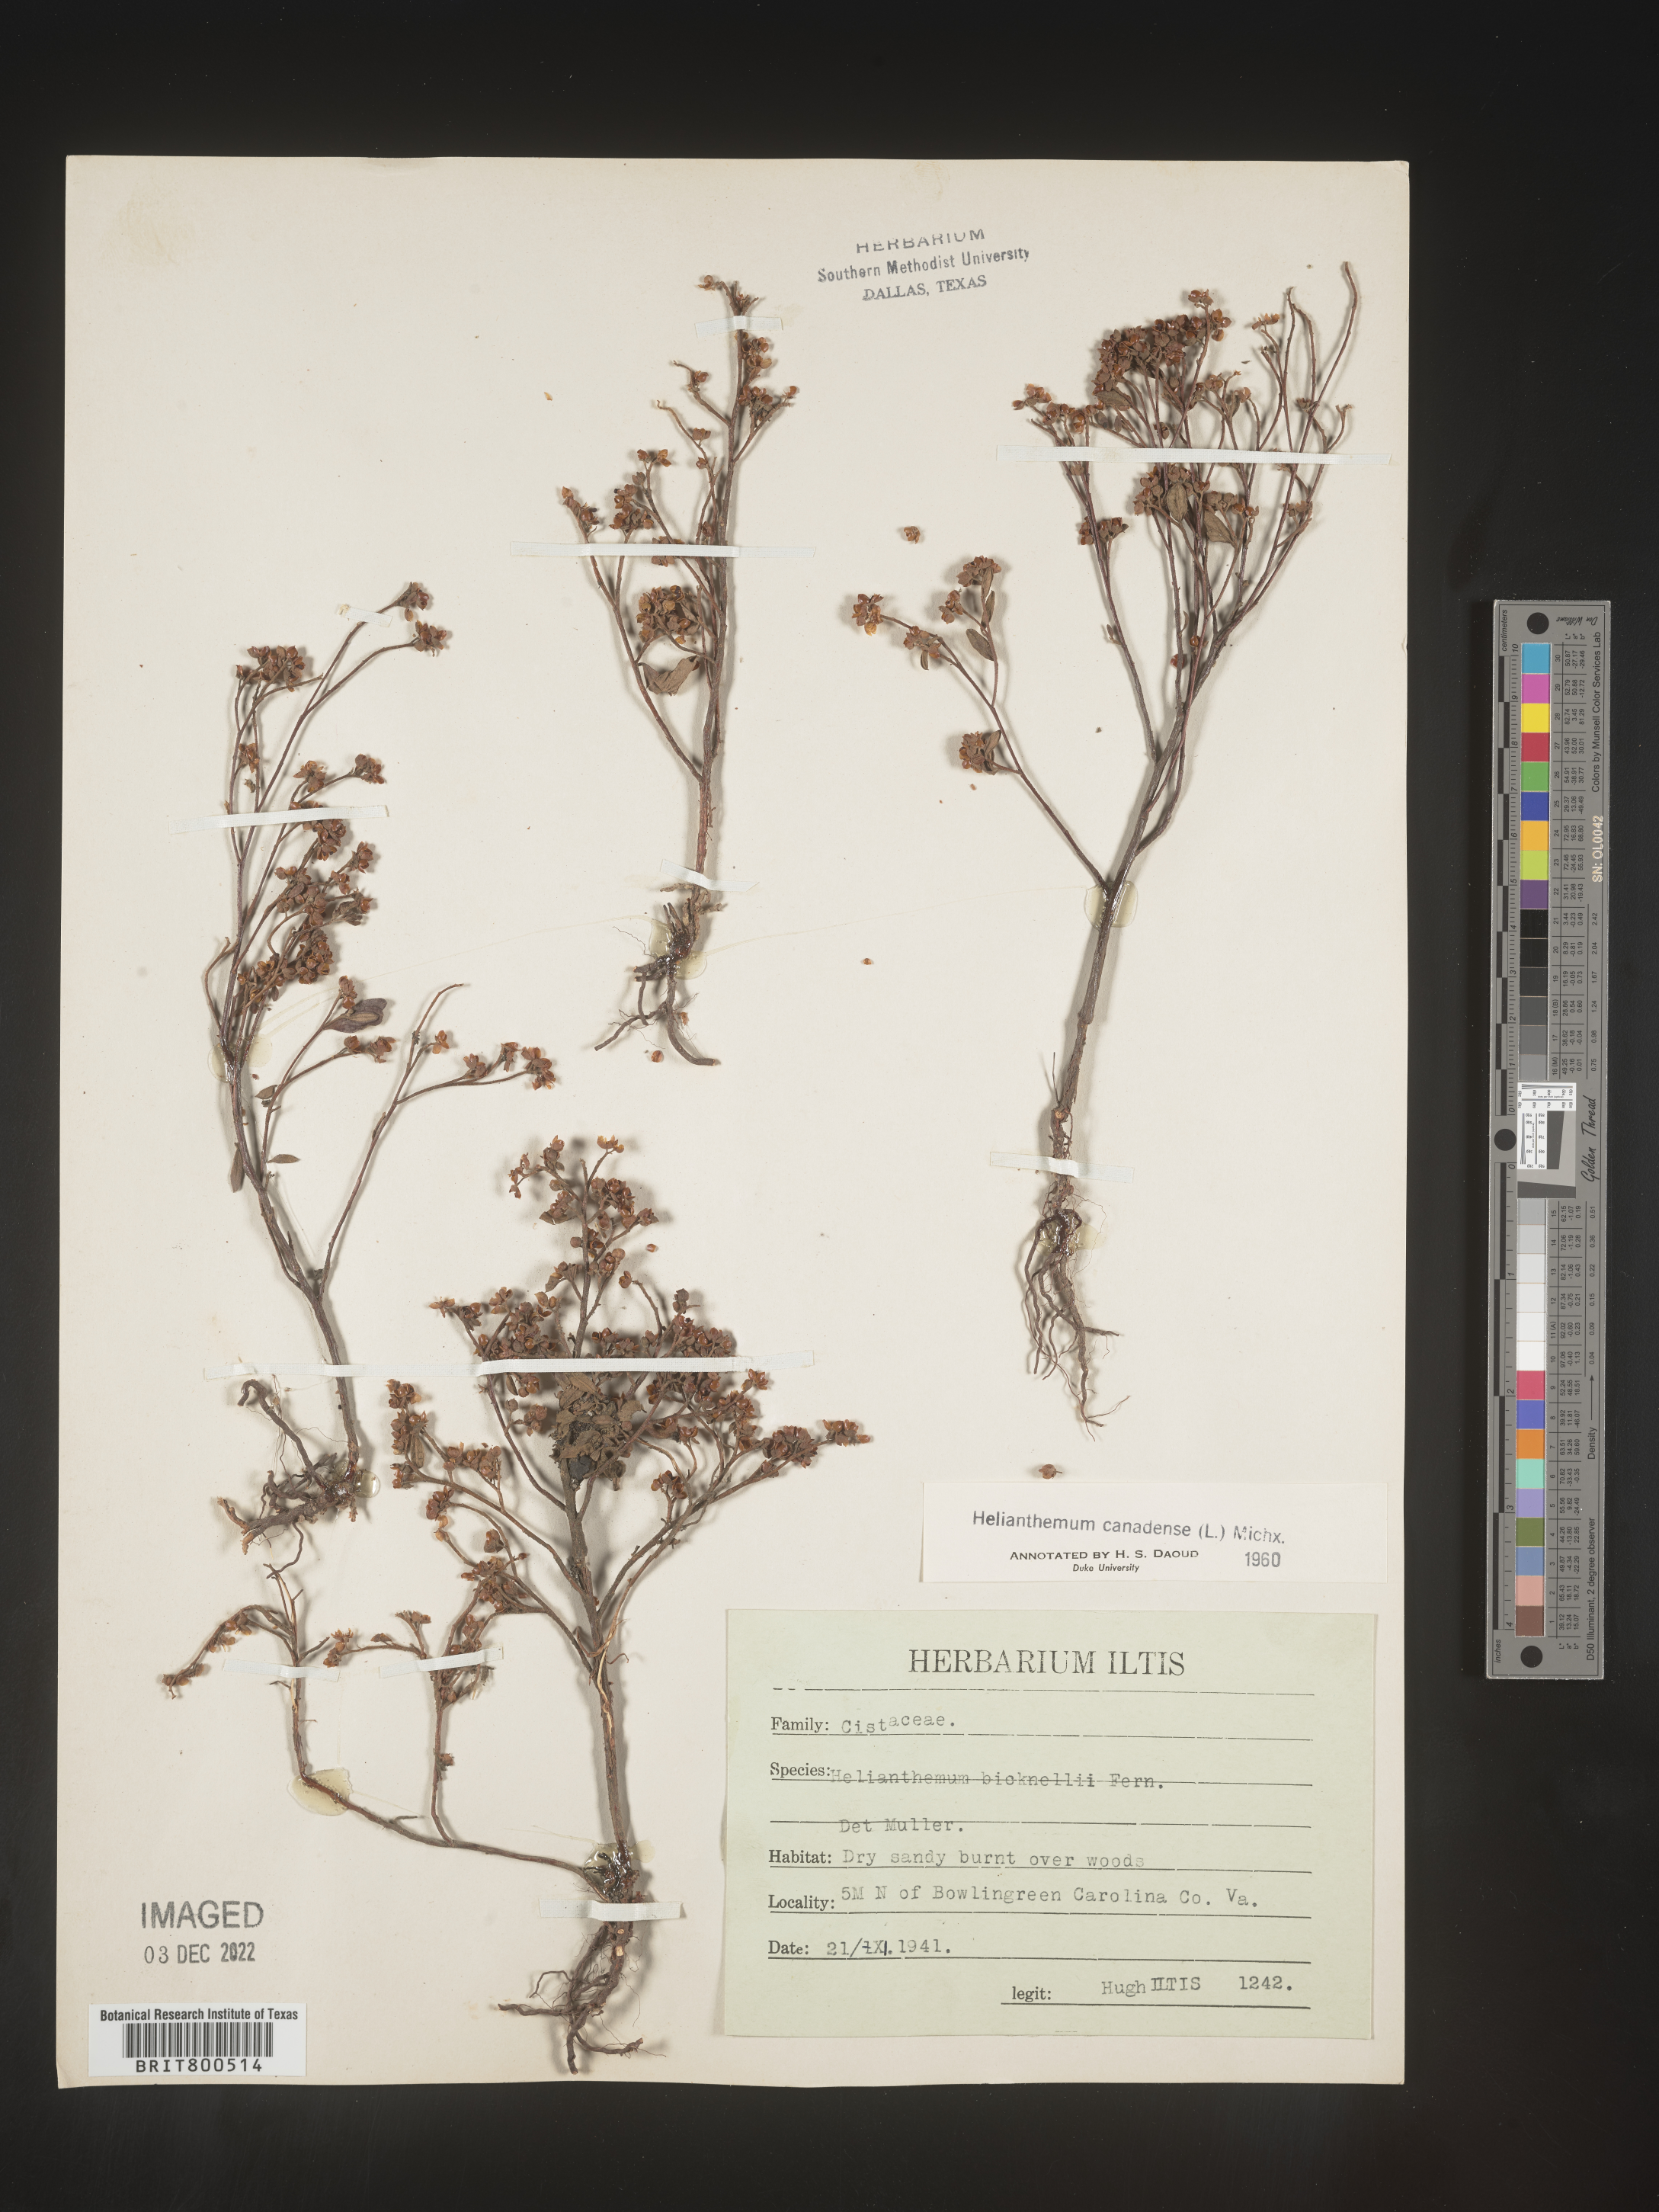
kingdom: Plantae
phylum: Tracheophyta
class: Magnoliopsida
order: Malvales
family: Cistaceae
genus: Crocanthemum
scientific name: Crocanthemum canadense
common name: Canada frostweed
